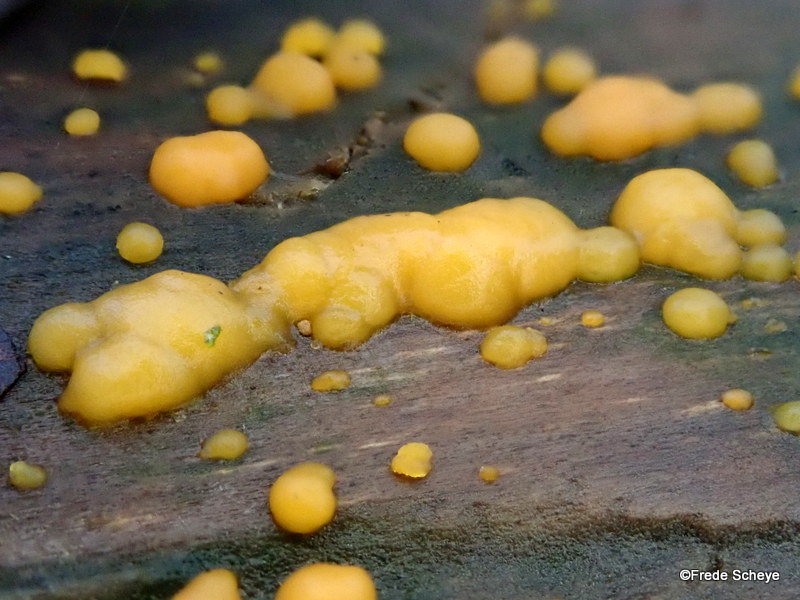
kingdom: Fungi
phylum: Basidiomycota
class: Dacrymycetes
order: Dacrymycetales
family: Dacrymycetaceae
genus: Dacrymyces
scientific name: Dacrymyces stillatus
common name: almindelig tåresvamp
